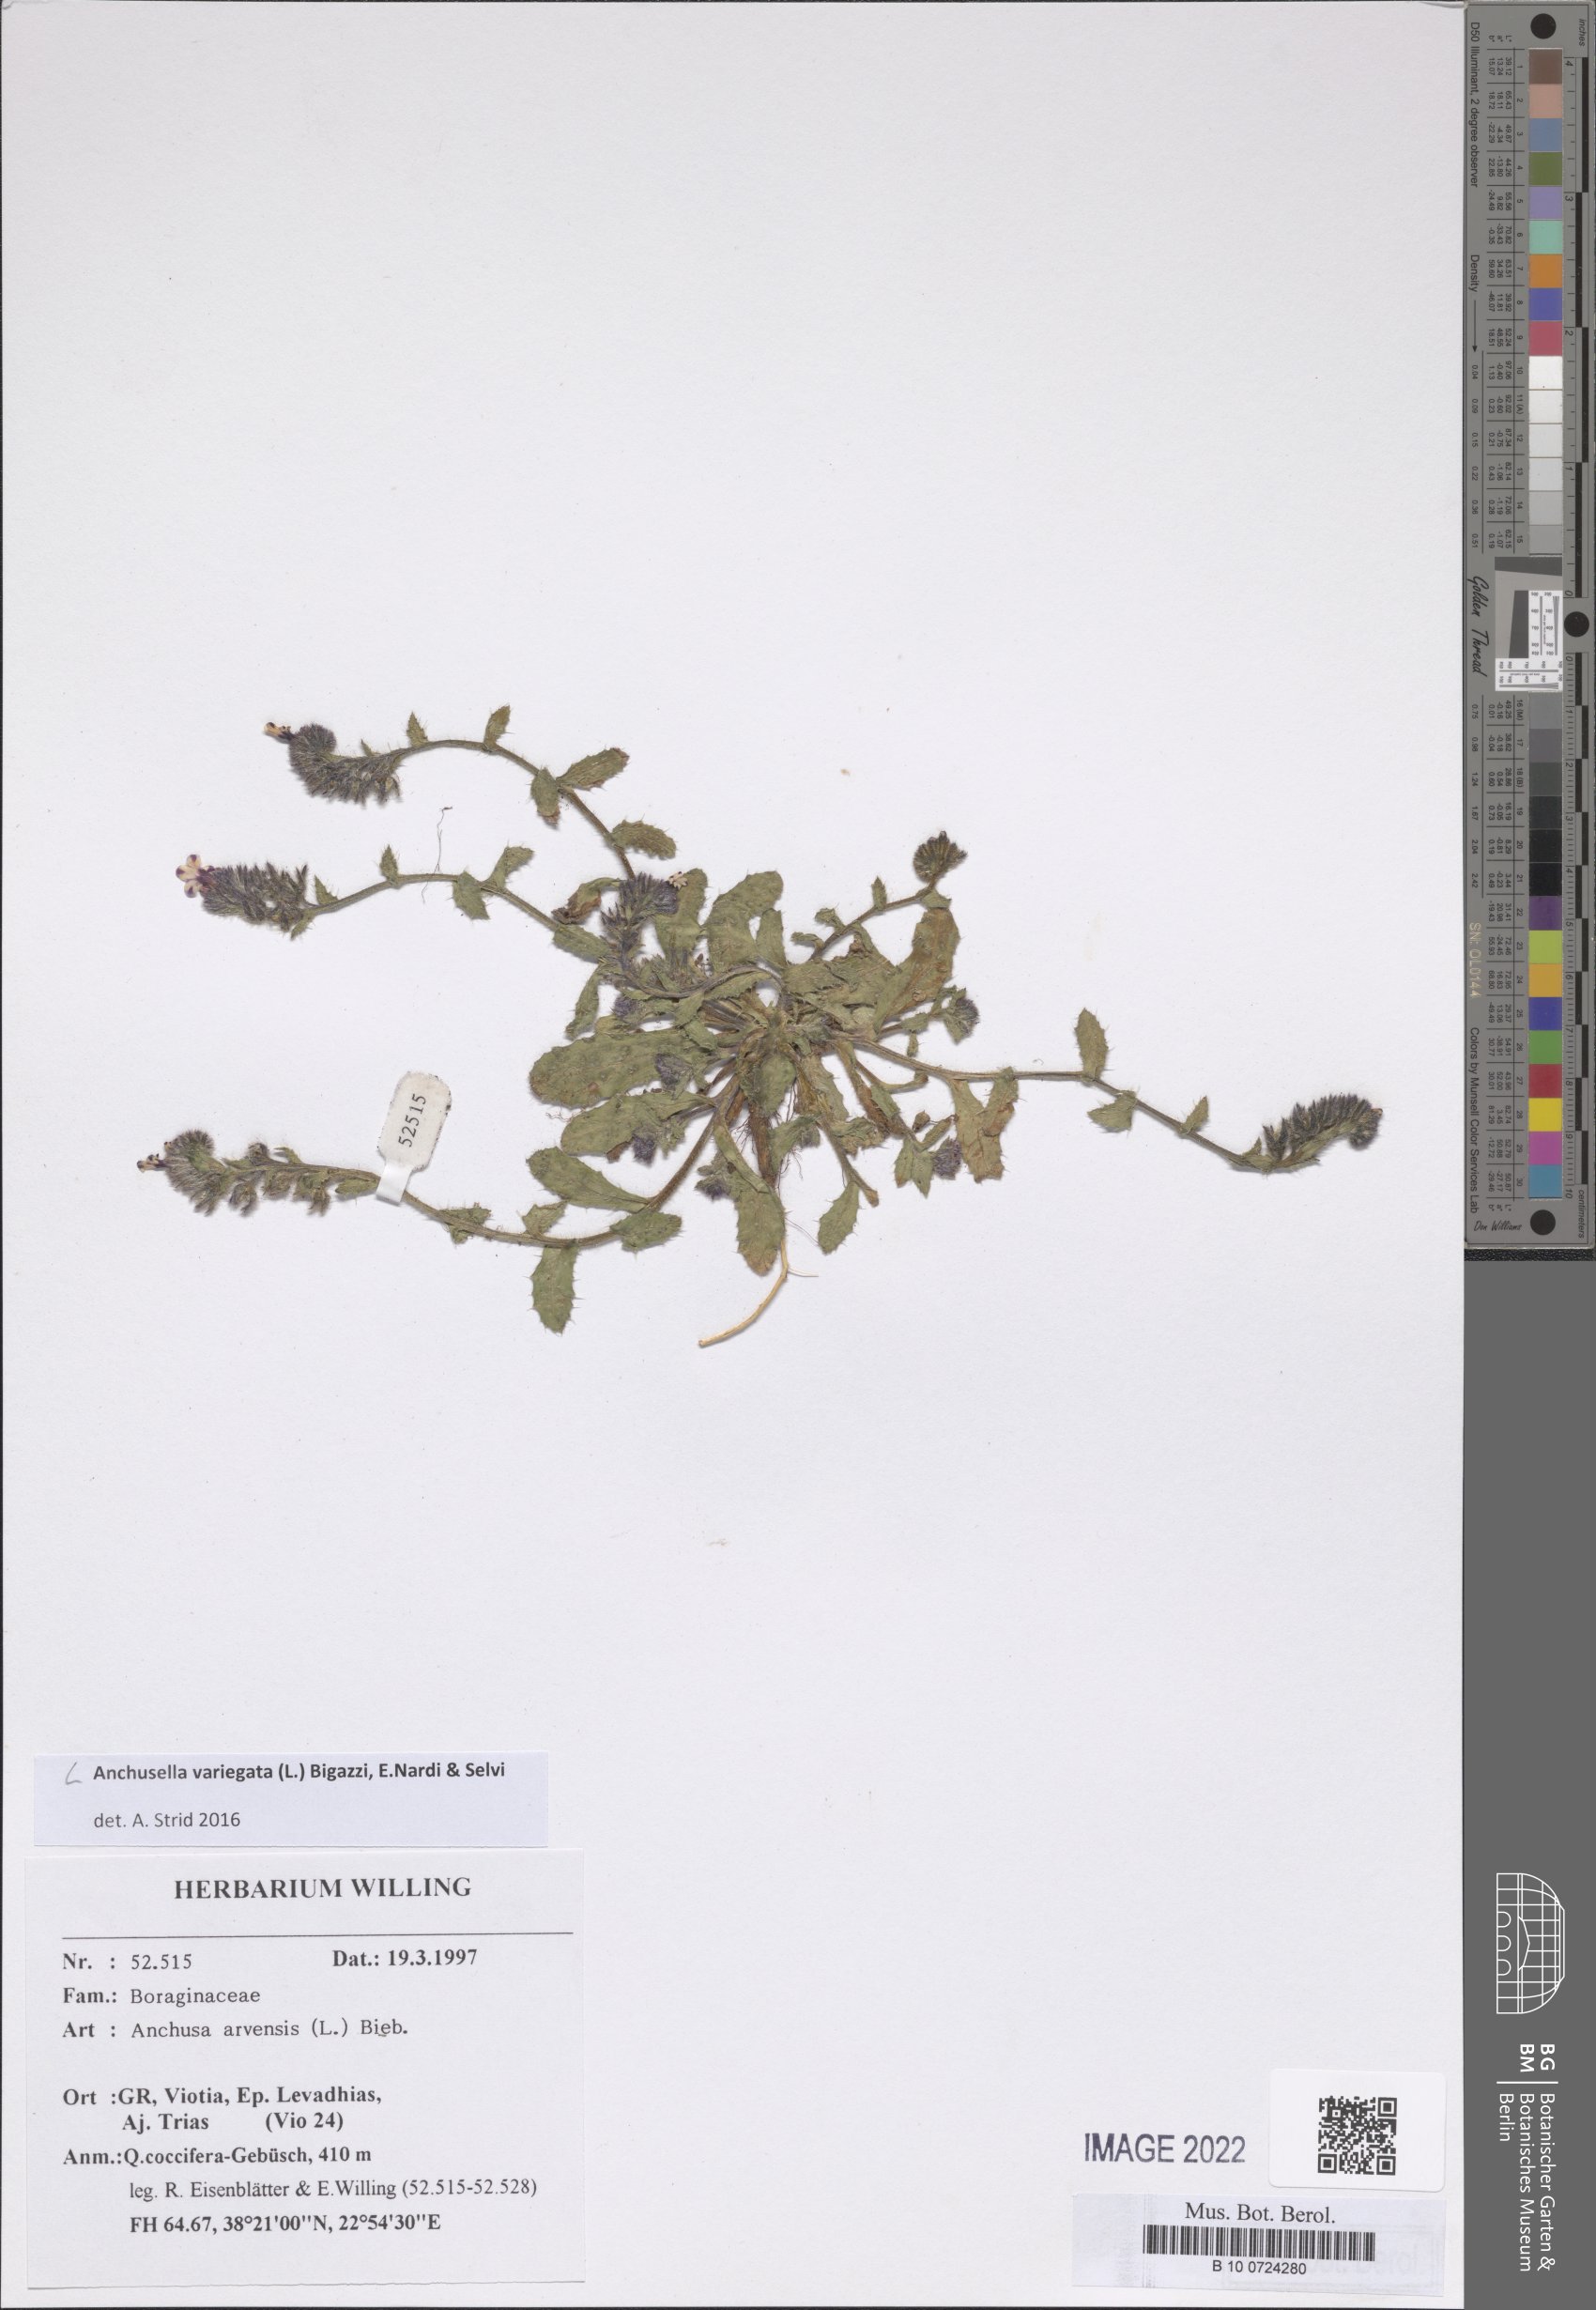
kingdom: Plantae
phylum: Tracheophyta
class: Magnoliopsida
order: Boraginales
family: Boraginaceae
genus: Anchusella
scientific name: Anchusella variegata
